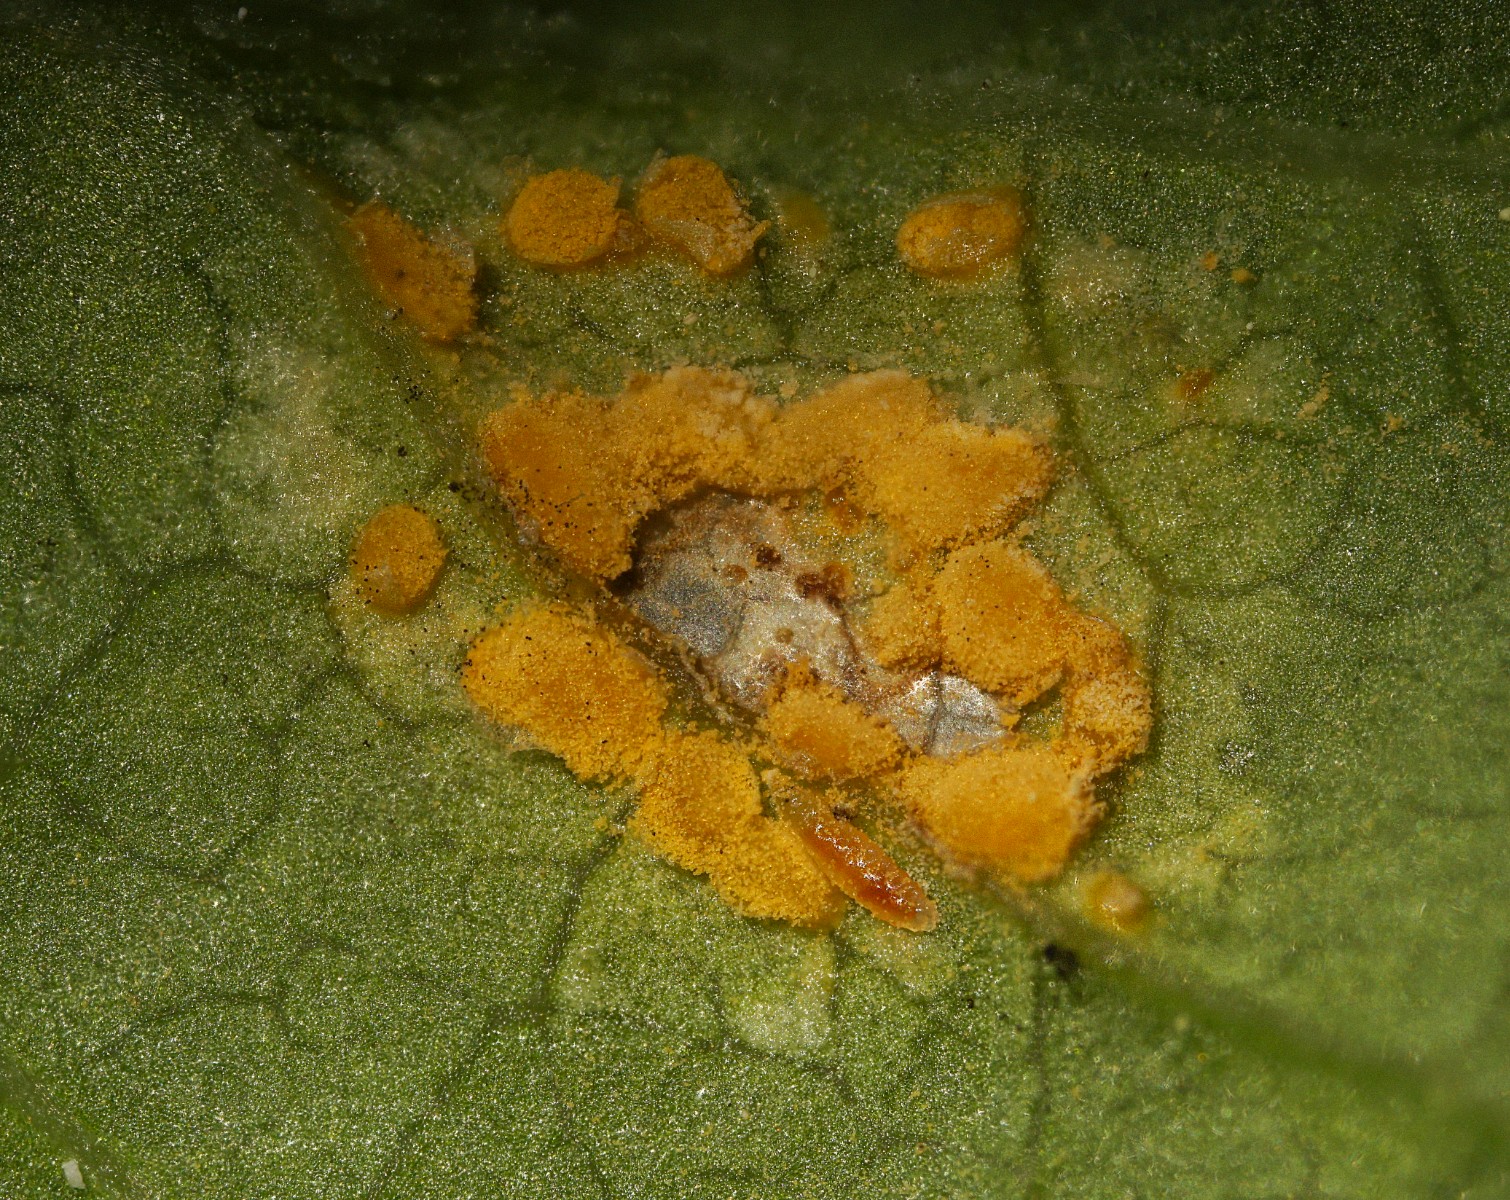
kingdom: Fungi
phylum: Basidiomycota
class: Pucciniomycetes
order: Pucciniales
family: Melampsoraceae
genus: Melampsora
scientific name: Melampsora epitea
